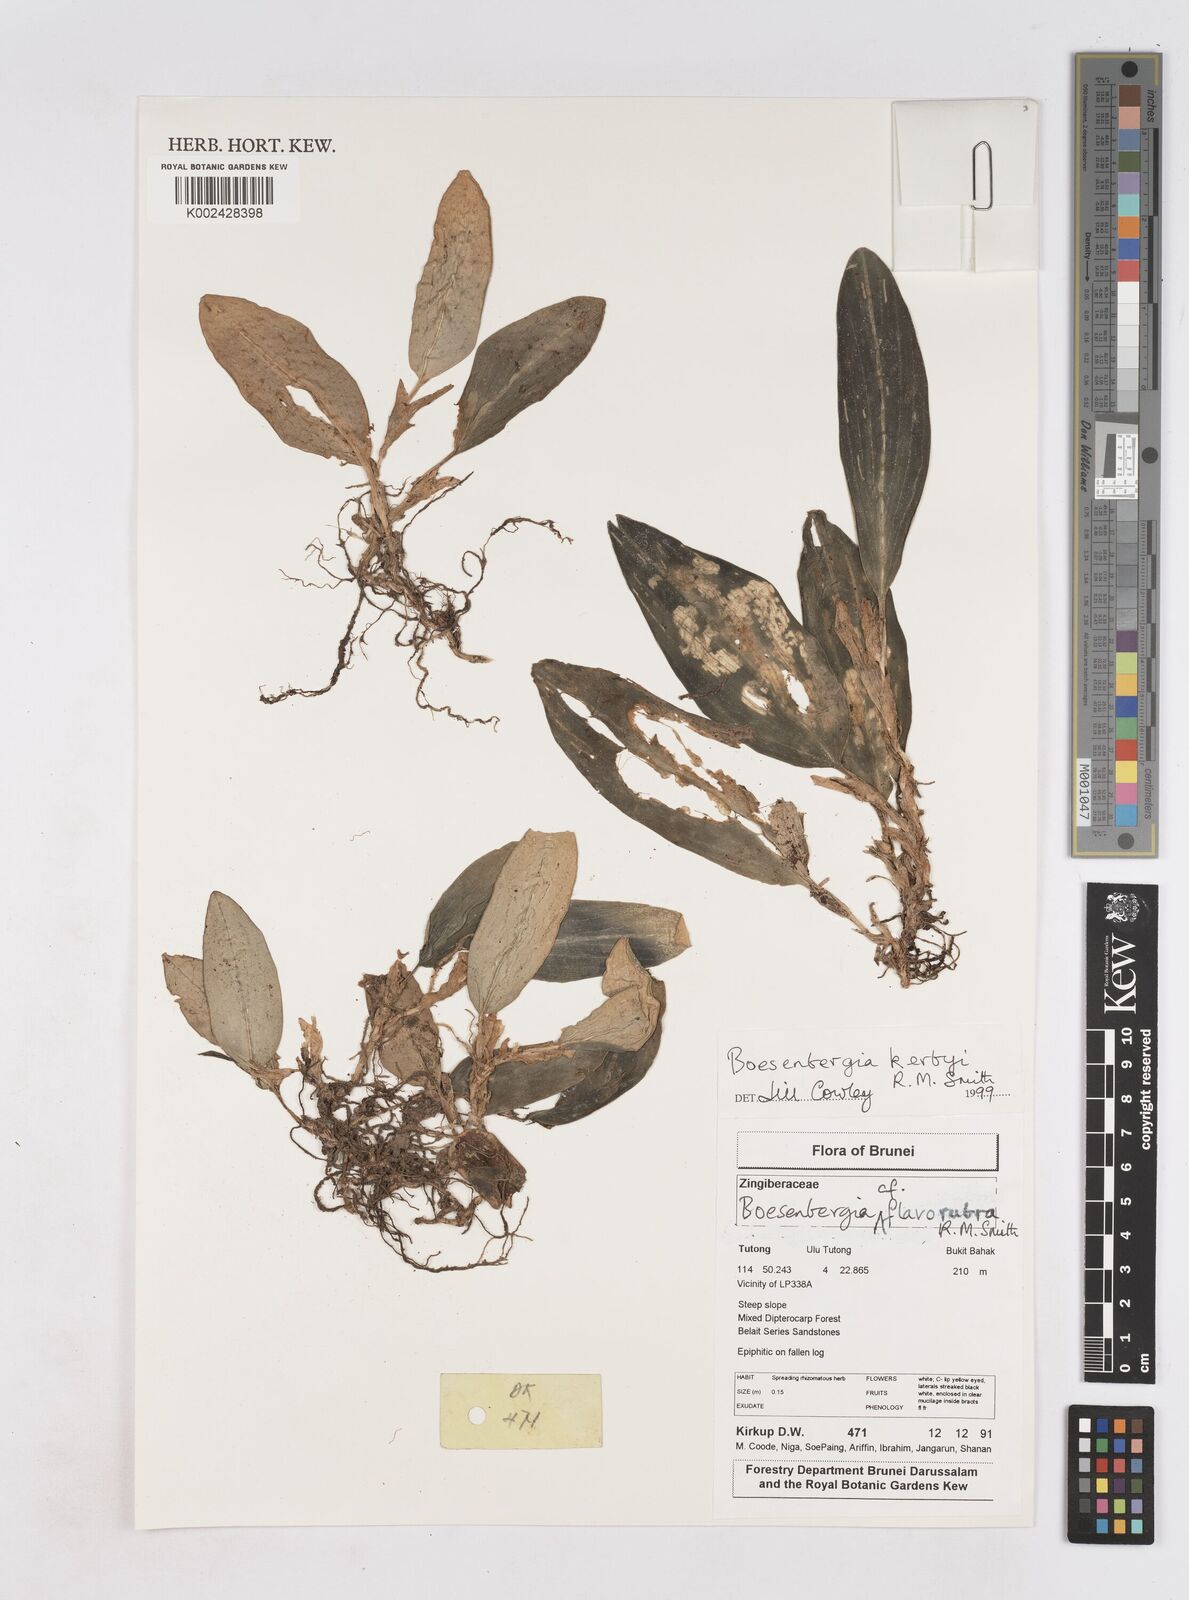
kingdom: Plantae
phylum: Tracheophyta
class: Liliopsida
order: Zingiberales
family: Zingiberaceae
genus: Boesenbergia
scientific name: Boesenbergia kerbyi
